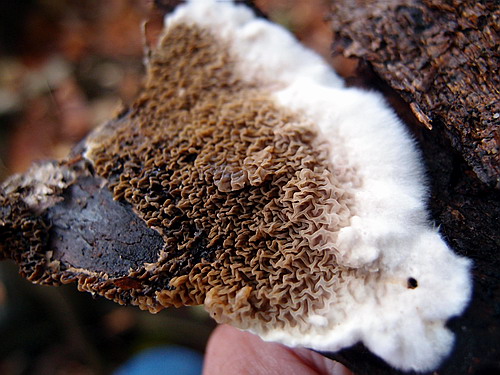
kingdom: Fungi
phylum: Basidiomycota
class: Agaricomycetes
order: Boletales
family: Serpulaceae
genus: Serpula
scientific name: Serpula himantioides
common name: tyndkødet hussvamp
